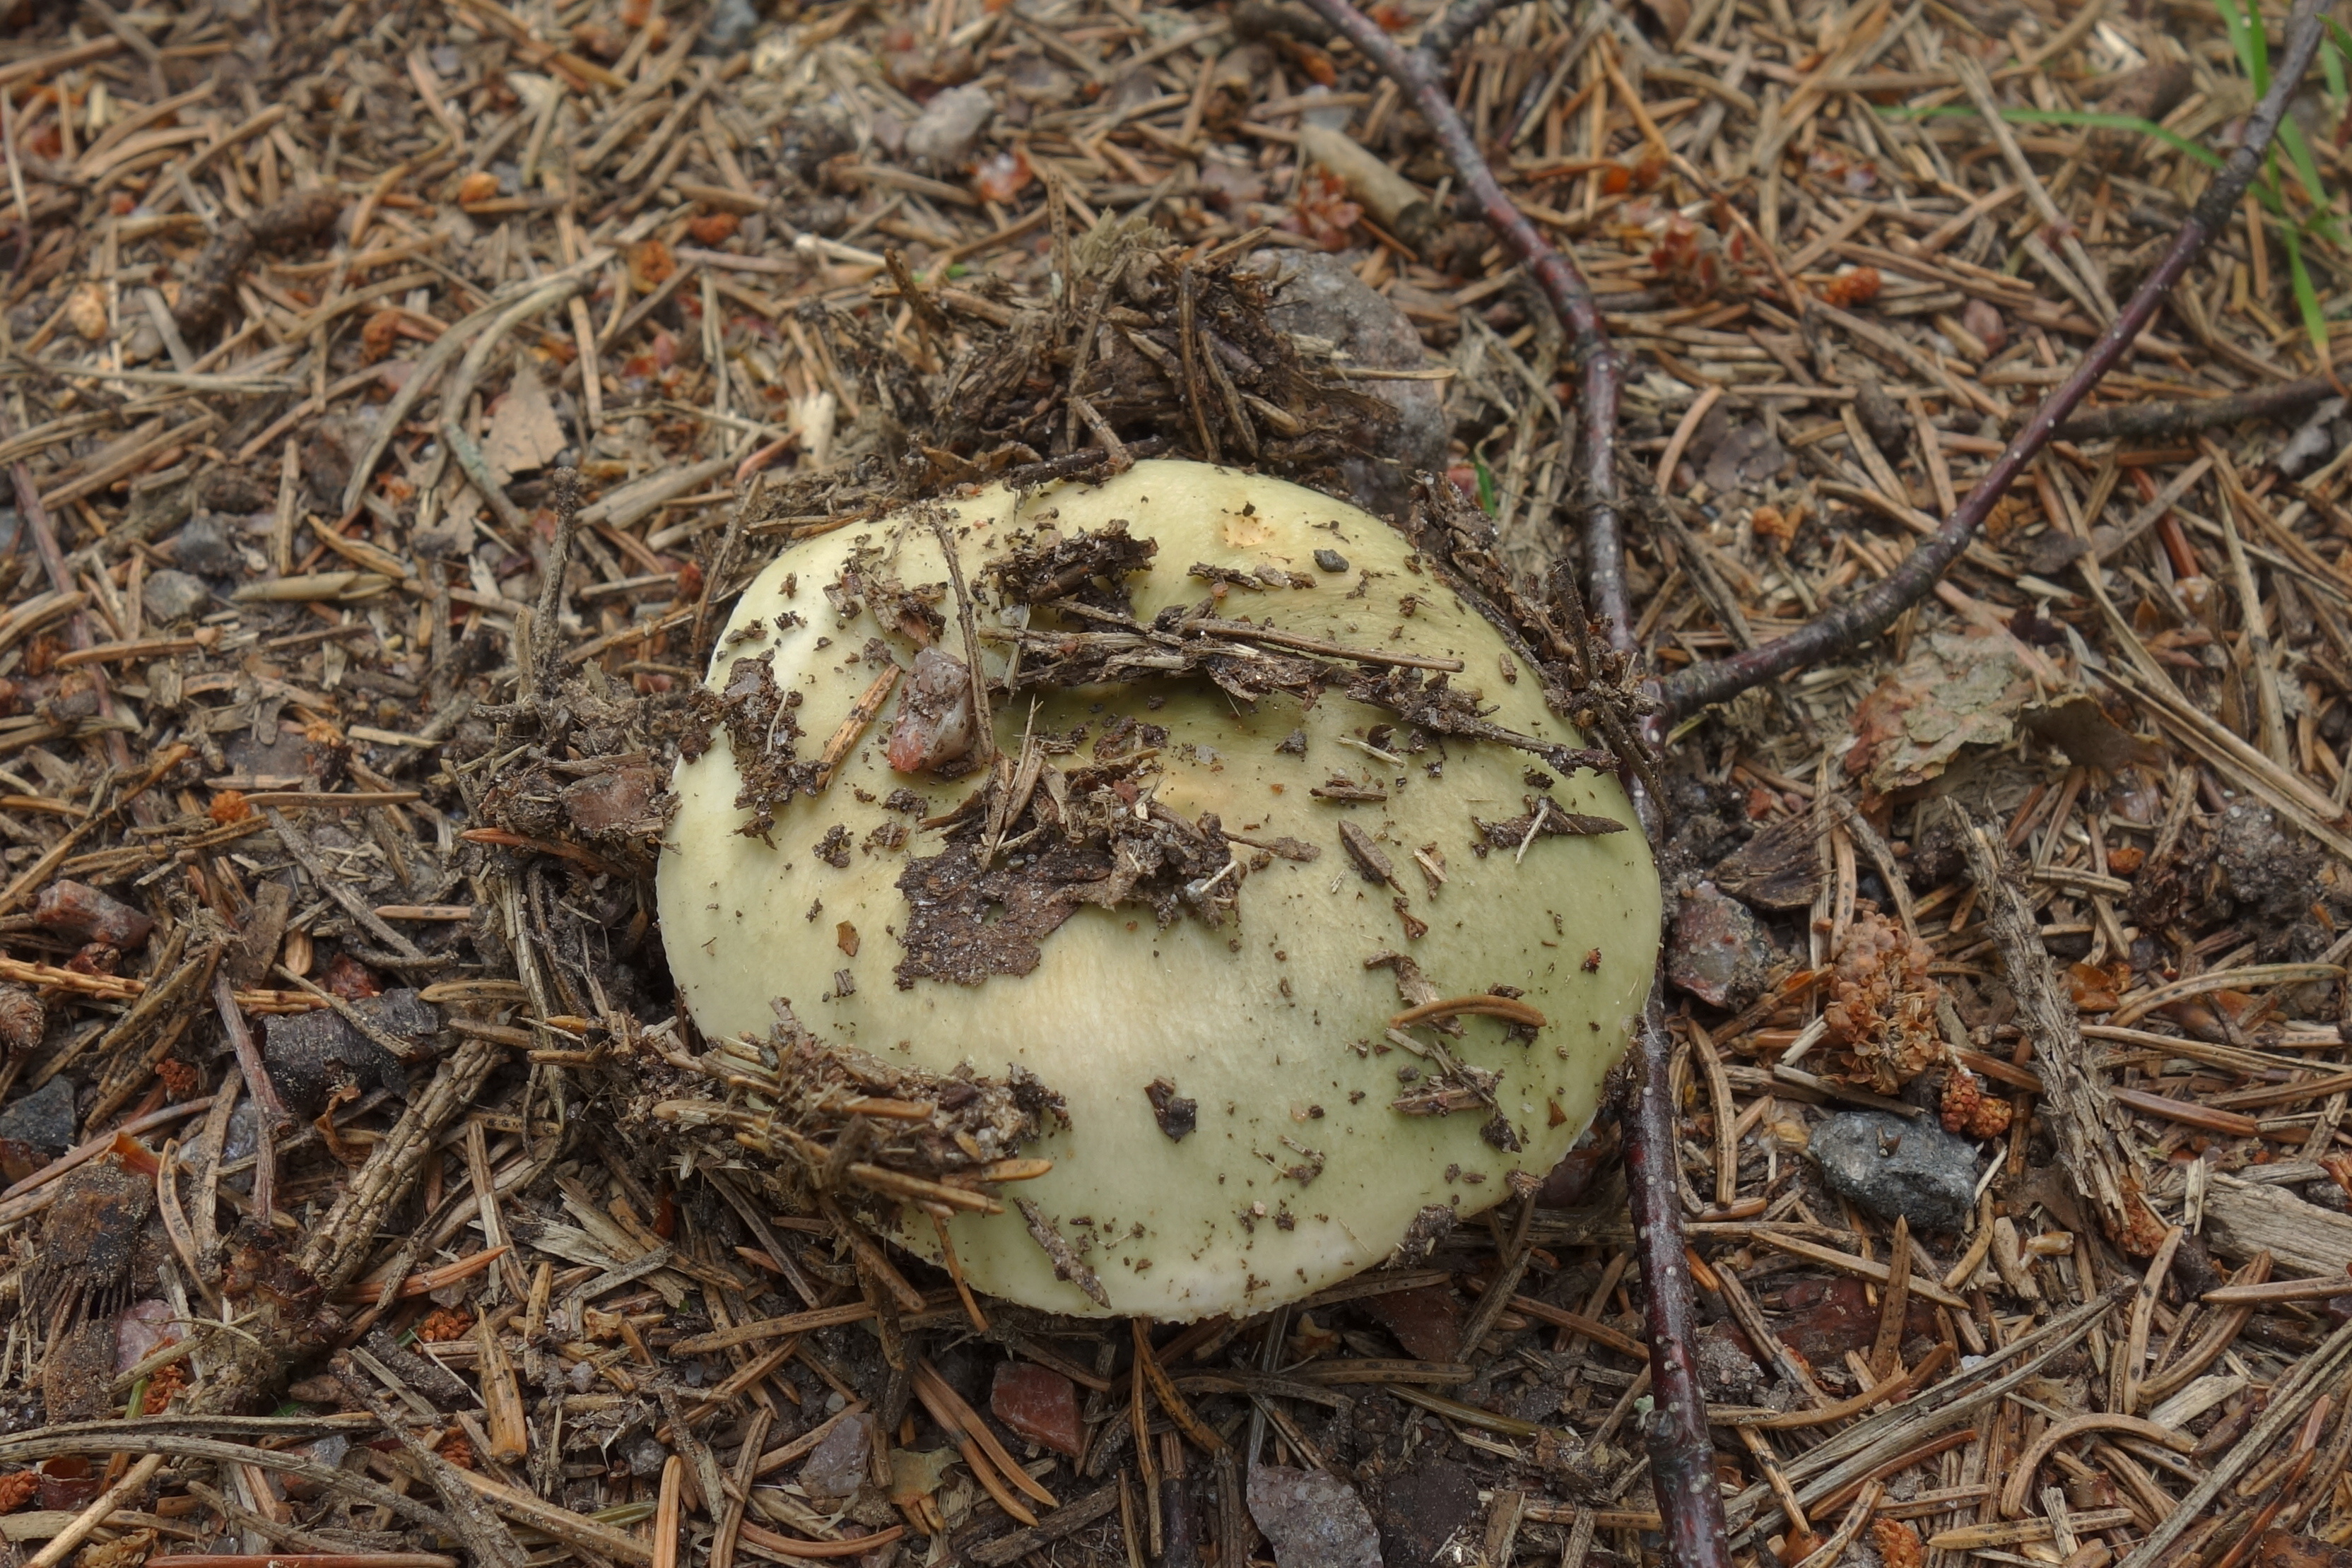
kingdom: Fungi
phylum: Basidiomycota
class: Agaricomycetes
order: Russulales
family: Russulaceae
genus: Russula
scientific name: Russula aeruginea
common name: Green brittlegill
